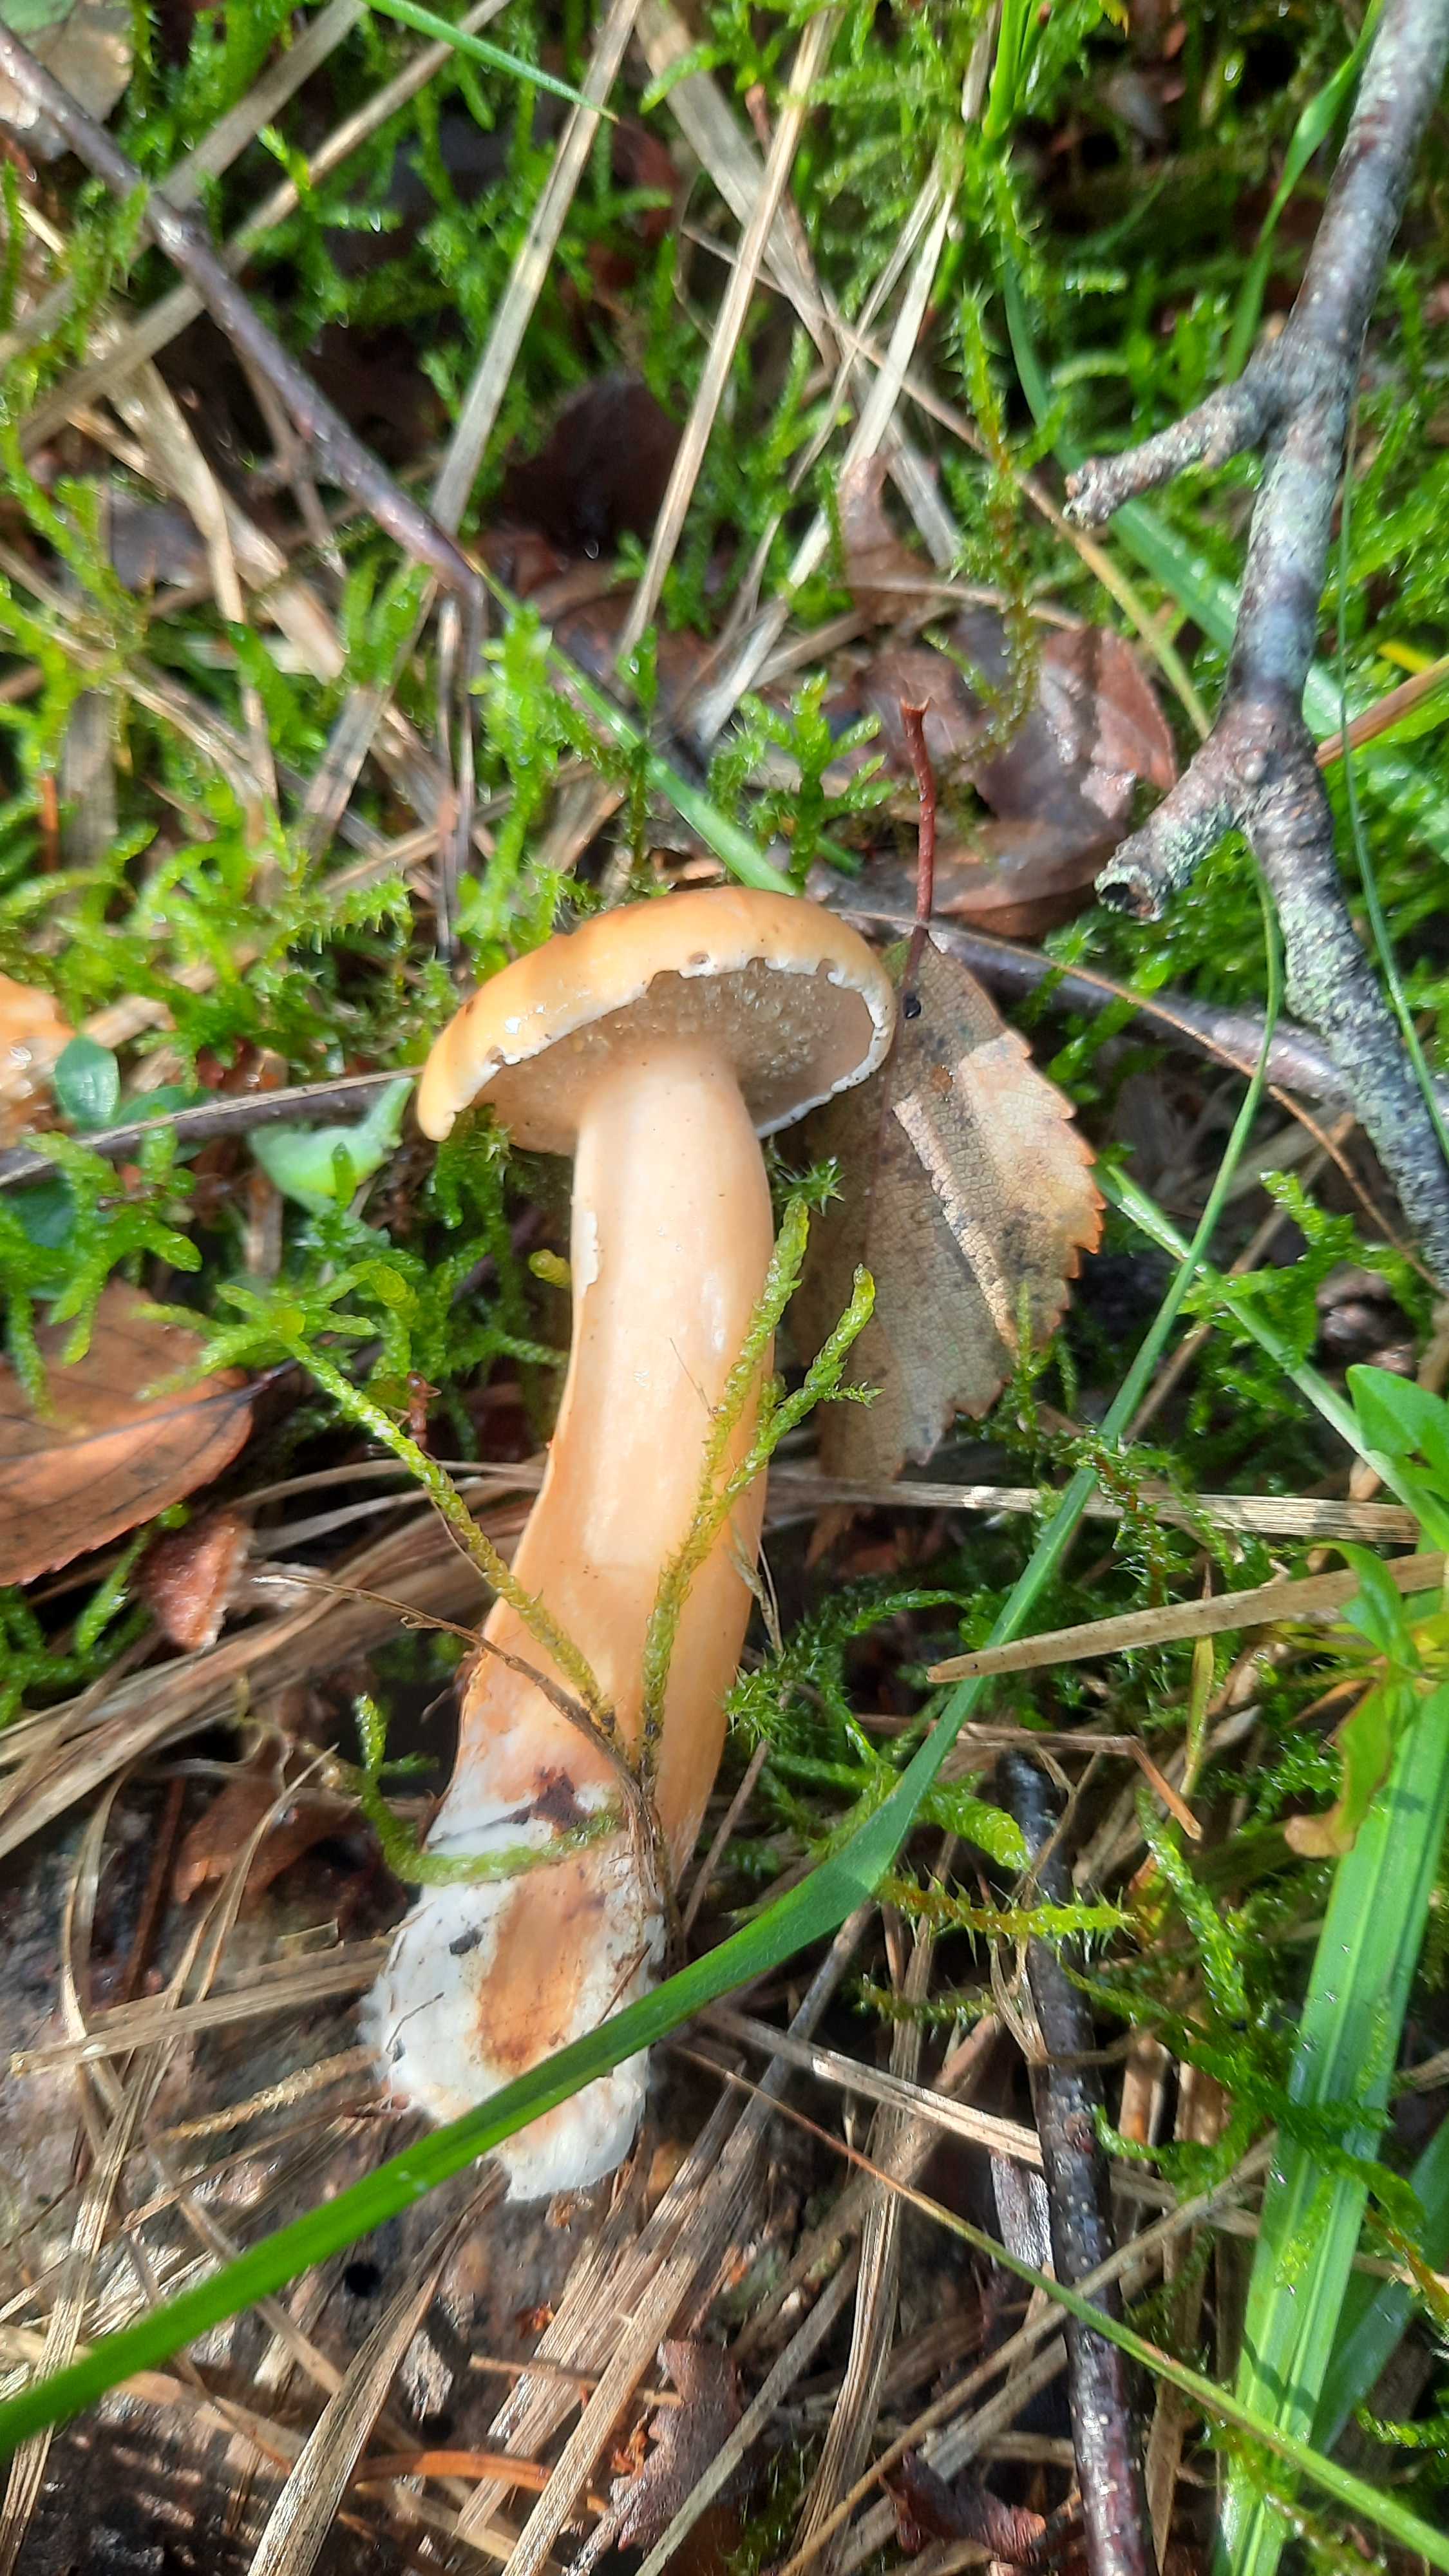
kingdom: Fungi
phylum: Basidiomycota
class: Agaricomycetes
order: Boletales
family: Suillaceae
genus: Suillus
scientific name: Suillus bovinus
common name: grovporet slimrørhat
